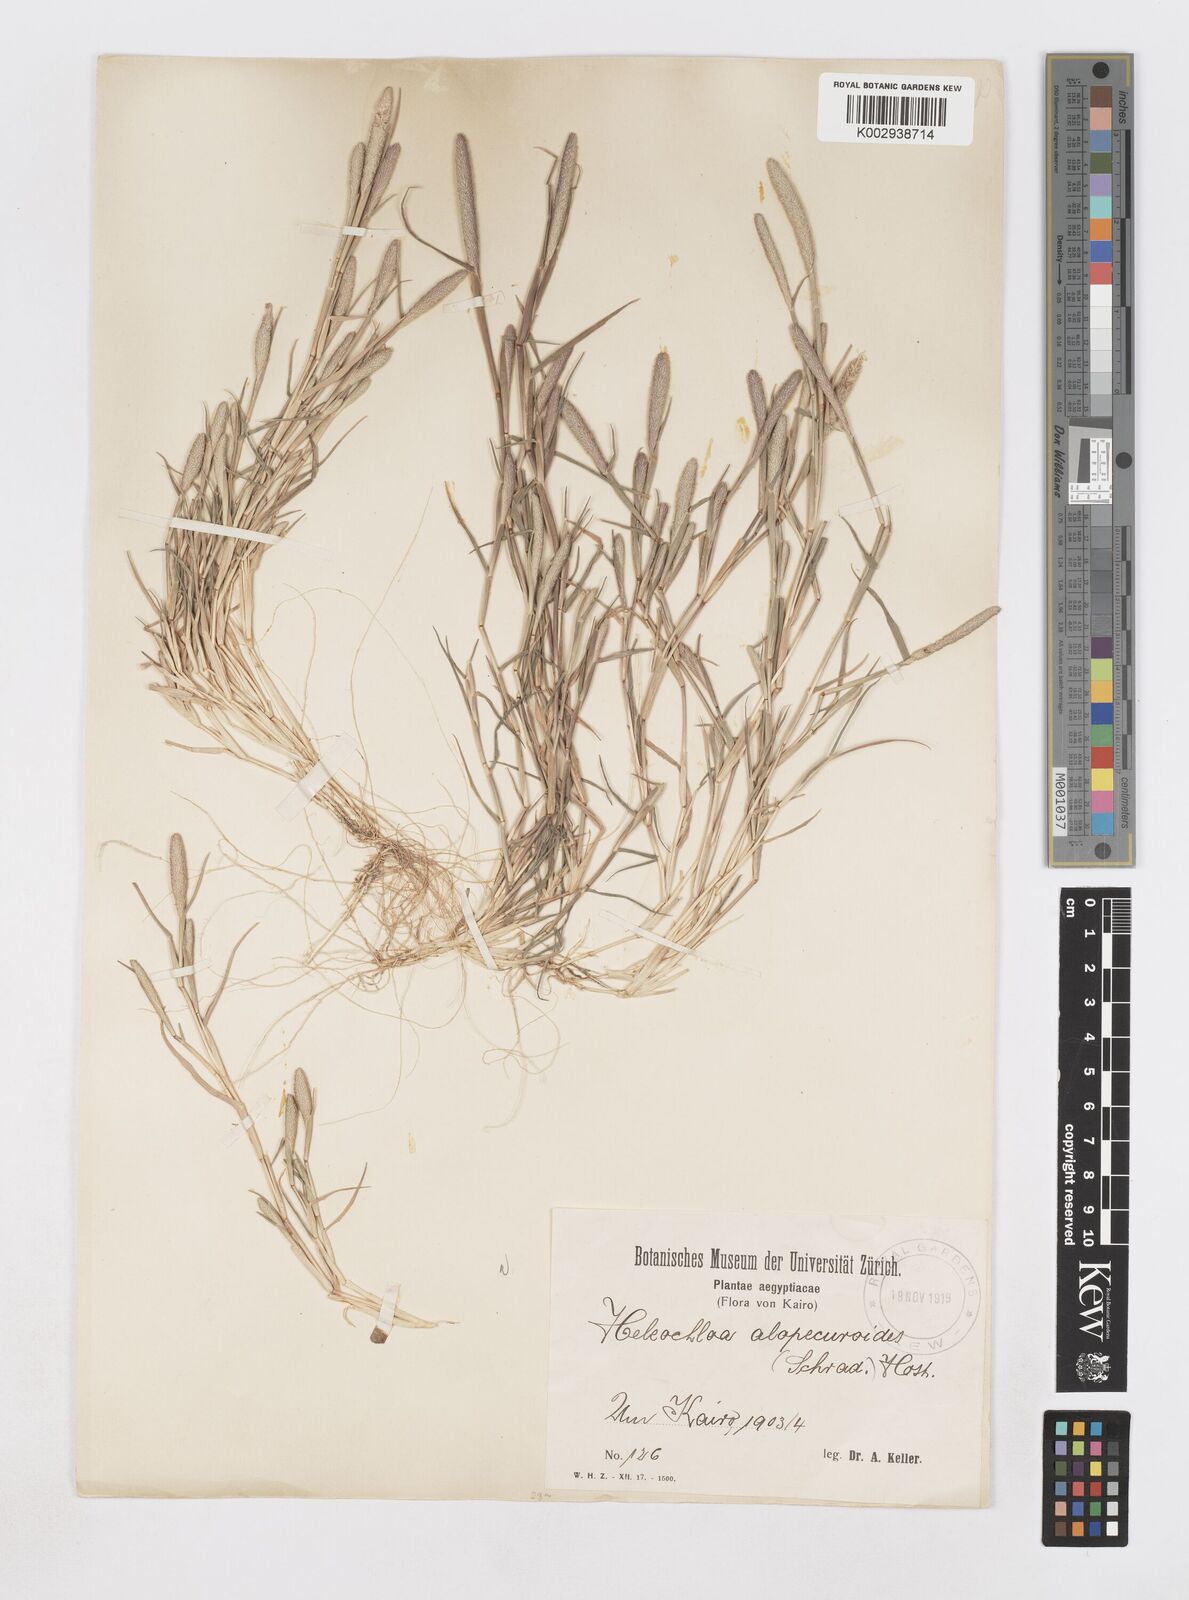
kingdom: Plantae
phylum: Tracheophyta
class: Liliopsida
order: Poales
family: Poaceae
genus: Sporobolus
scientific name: Sporobolus alopecuroides
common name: Foxtail pricklegrass
